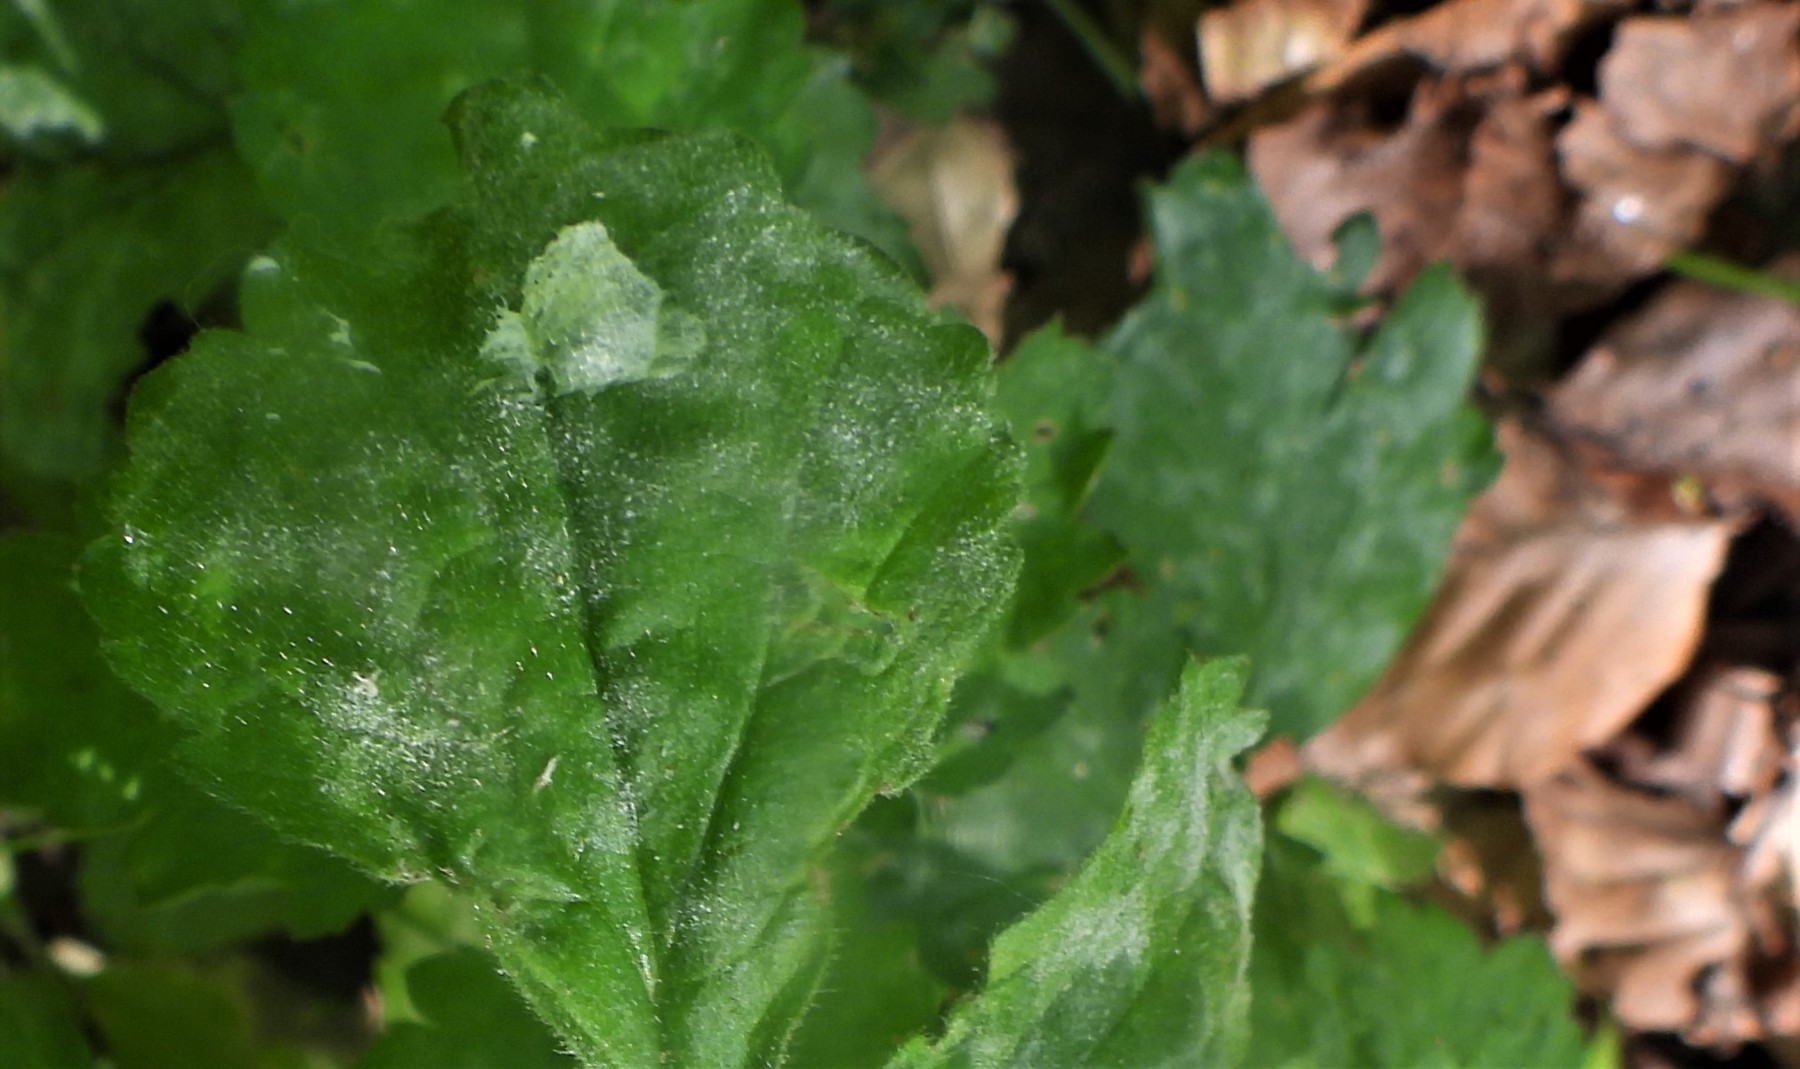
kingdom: Fungi
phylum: Ascomycota
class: Leotiomycetes
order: Helotiales
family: Erysiphaceae
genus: Podosphaera
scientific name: Podosphaera aphanis
